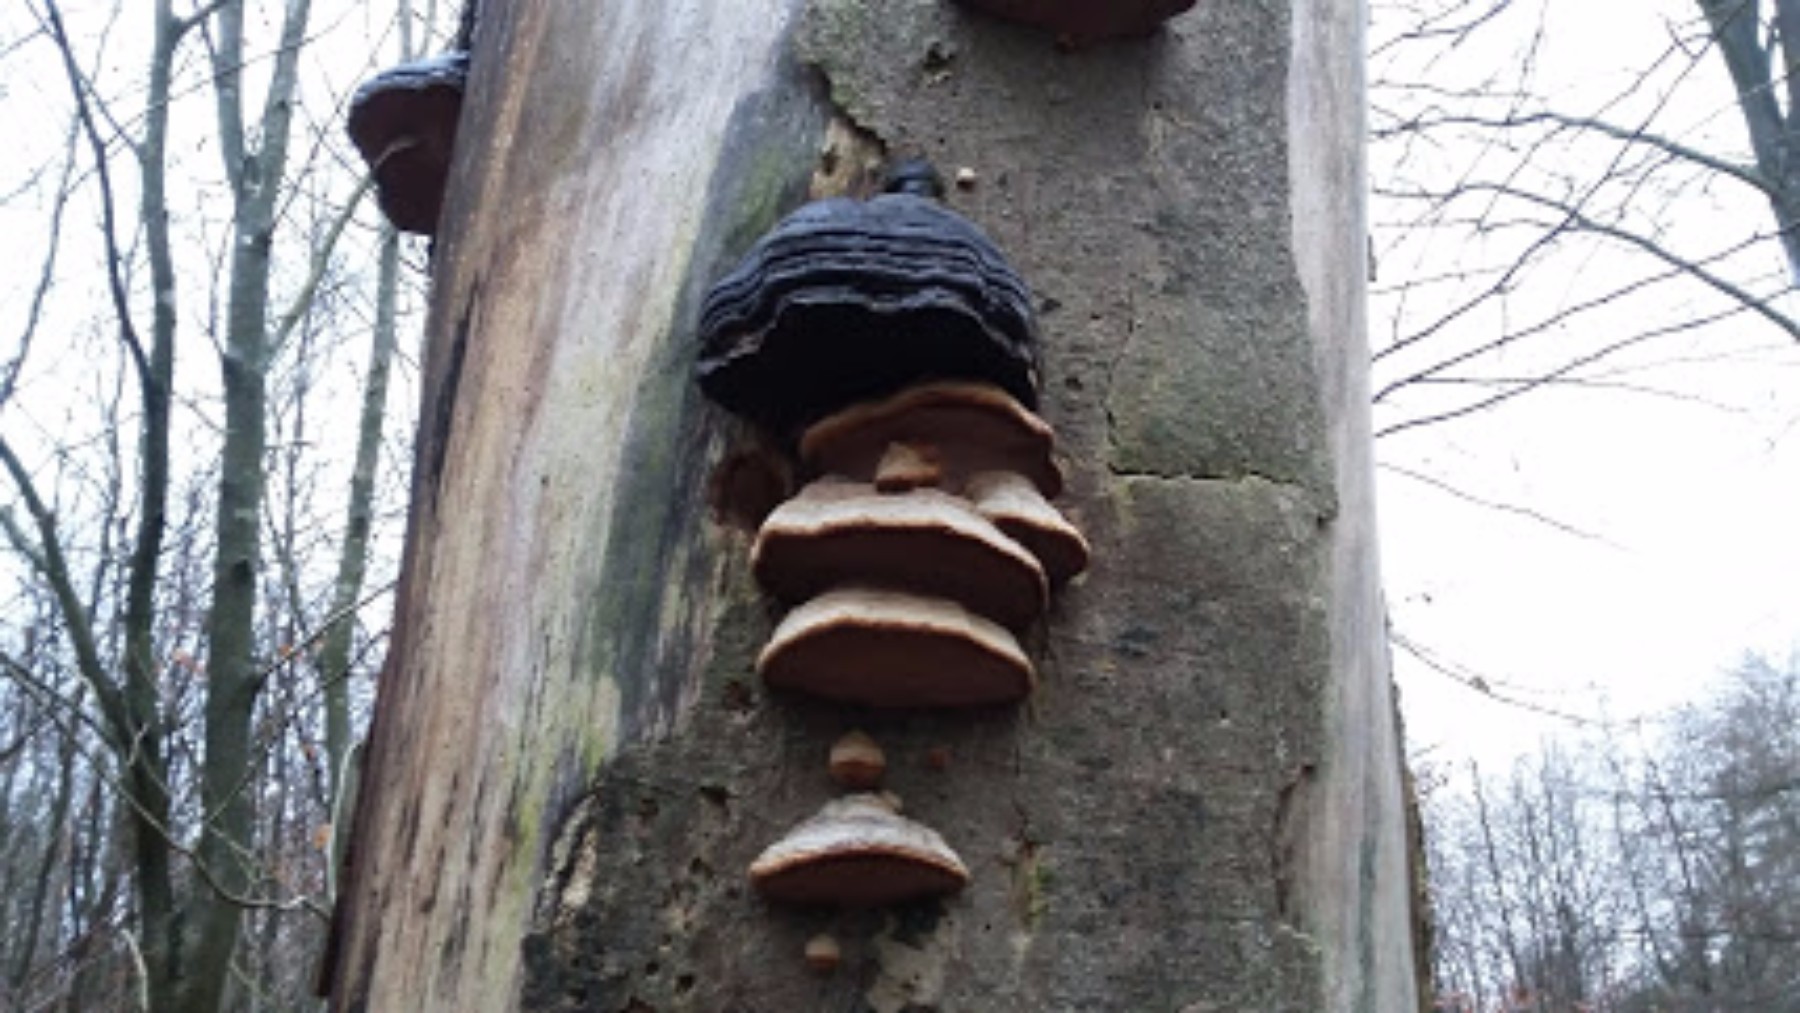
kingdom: Fungi
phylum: Basidiomycota
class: Agaricomycetes
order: Polyporales
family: Polyporaceae
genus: Fomes
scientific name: Fomes fomentarius
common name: tøndersvamp
